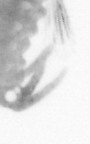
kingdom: Animalia
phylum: Annelida
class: Polychaeta
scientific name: Polychaeta
